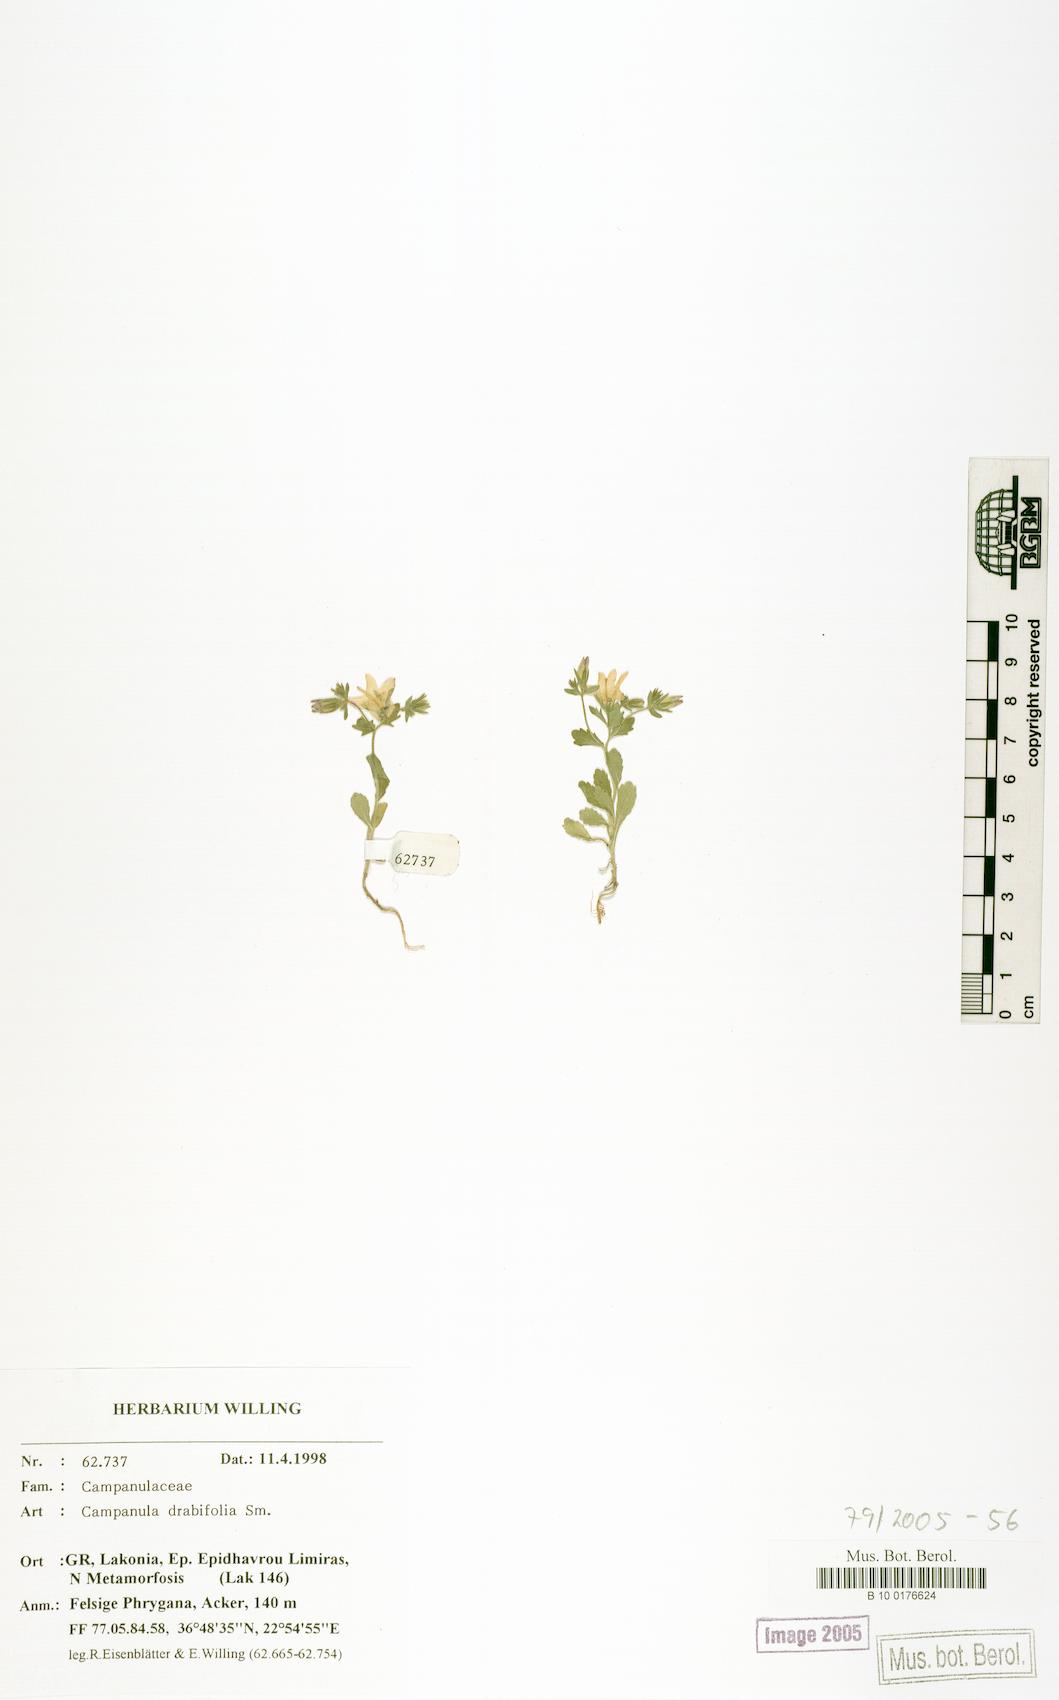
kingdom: Plantae
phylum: Tracheophyta
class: Magnoliopsida
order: Asterales
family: Campanulaceae
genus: Campanula
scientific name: Campanula drabifolia
